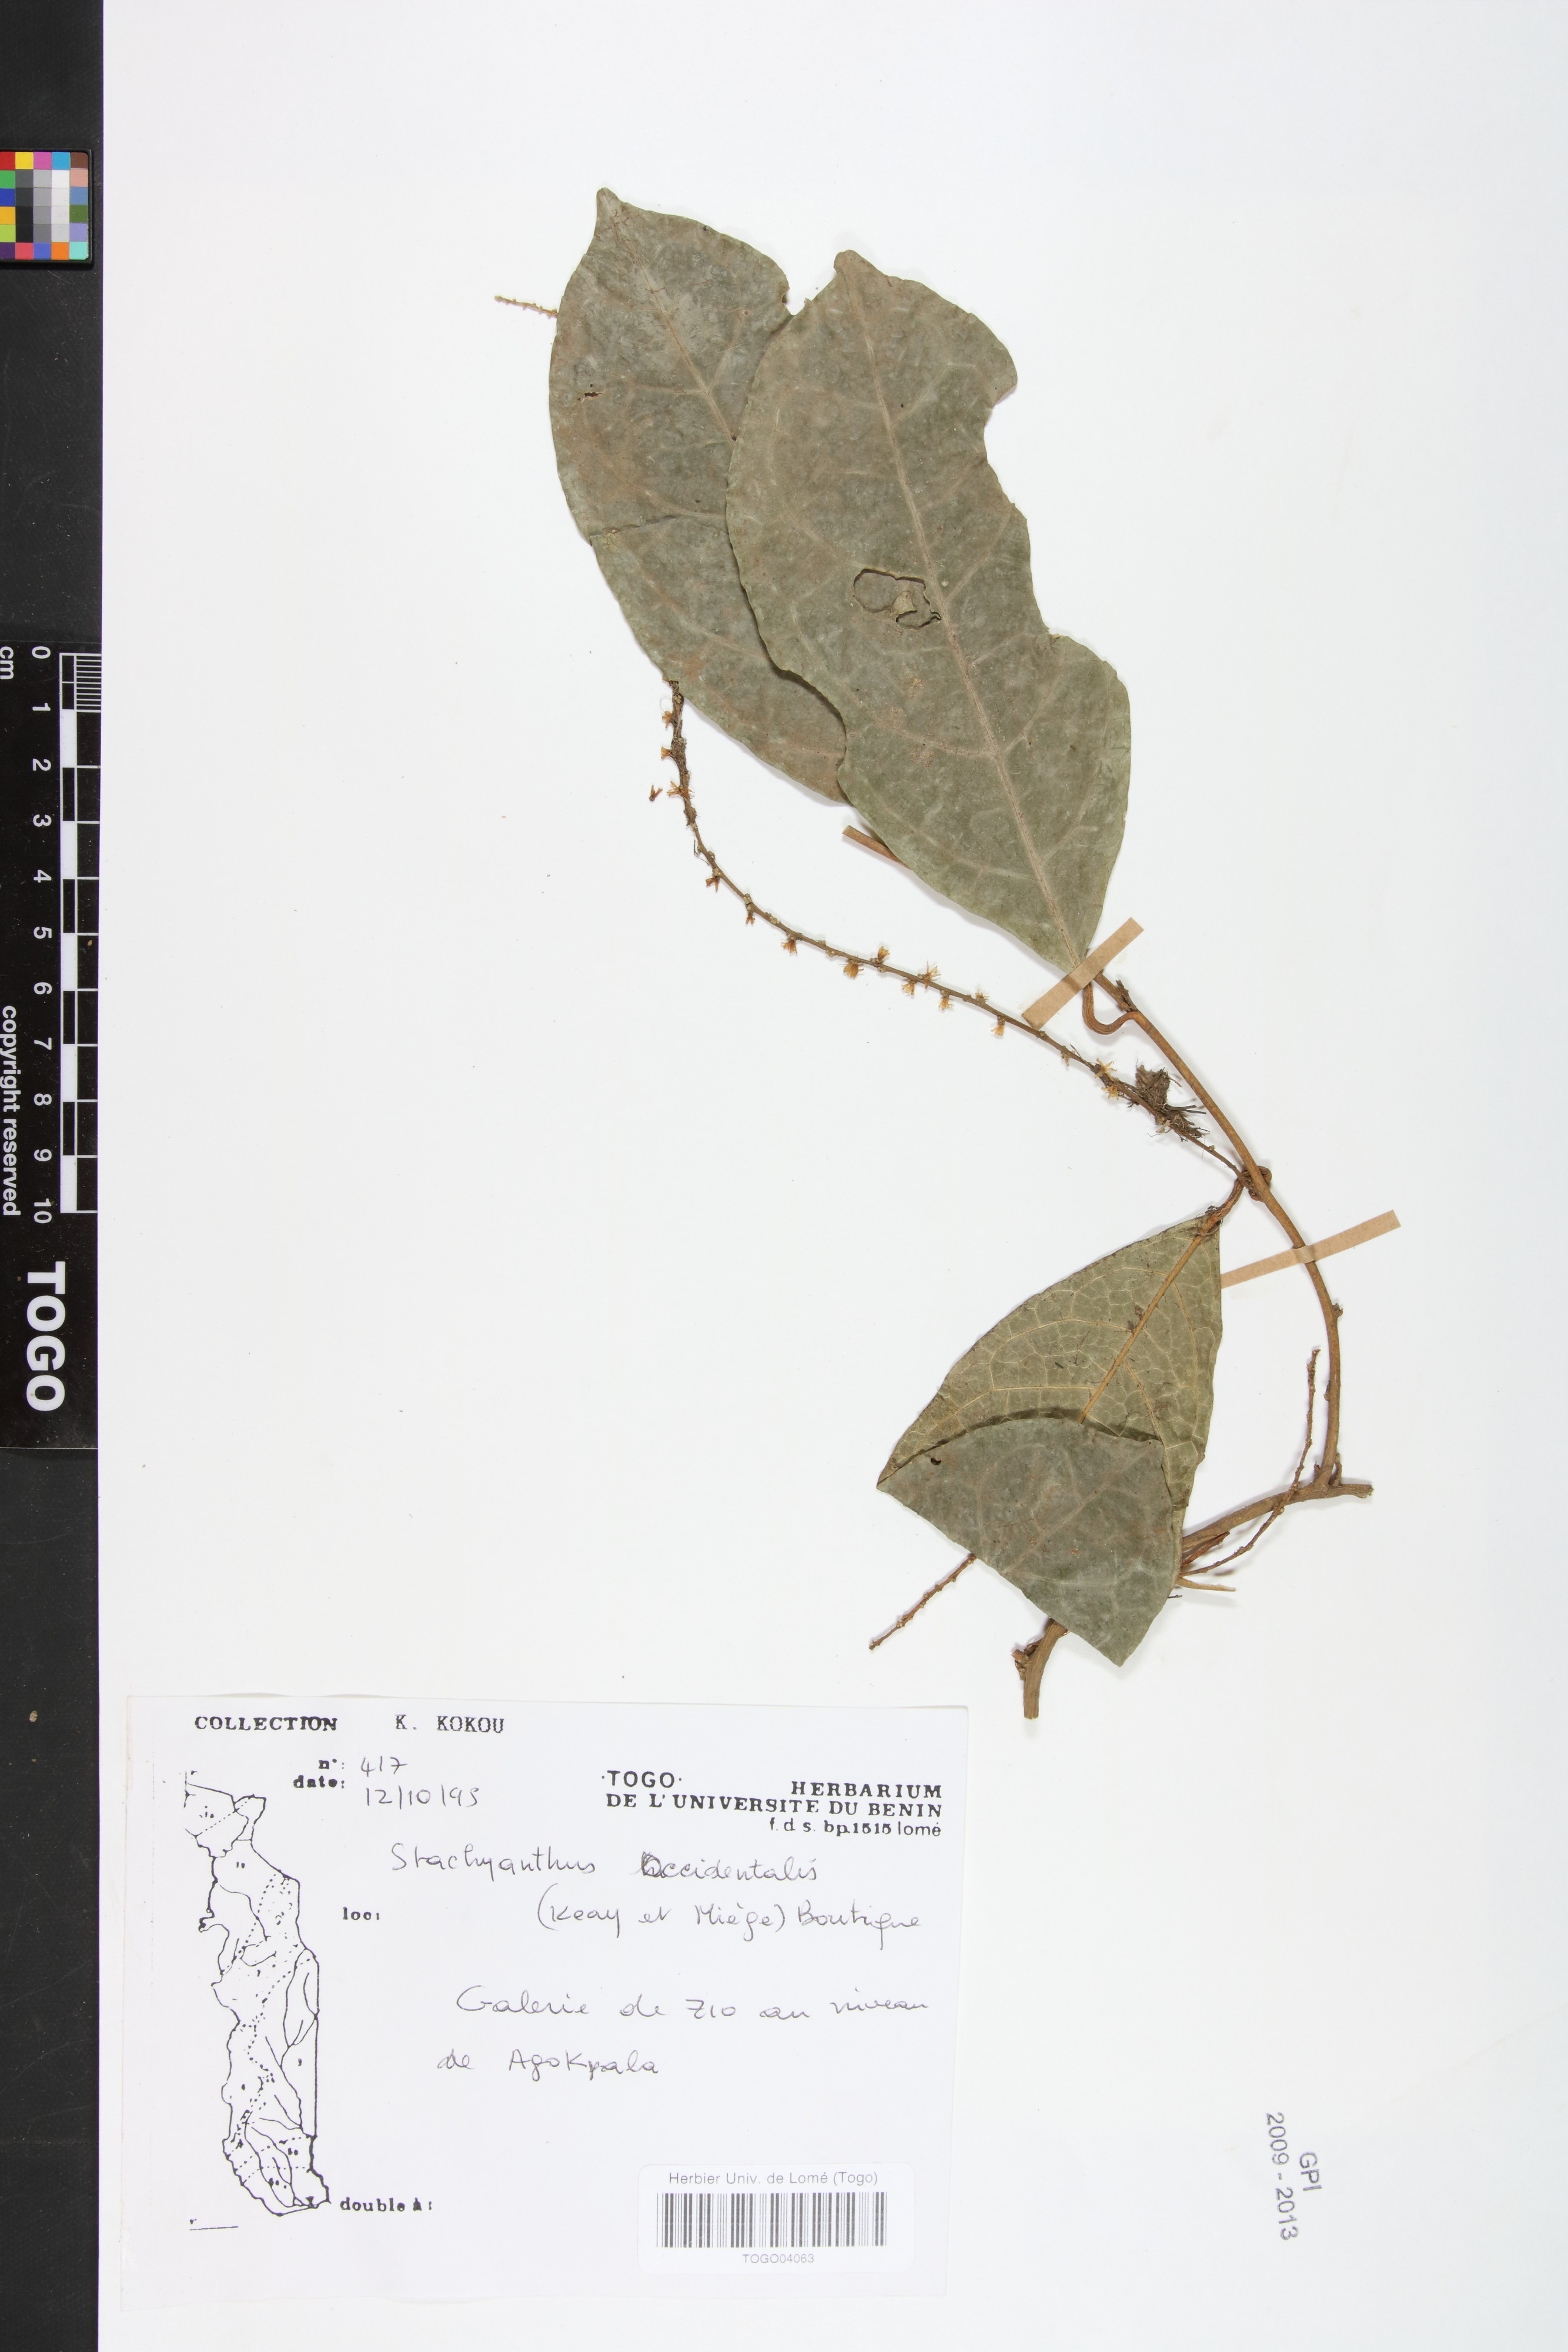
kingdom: Plantae
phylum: Tracheophyta
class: Magnoliopsida
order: Icacinales
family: Icacinaceae
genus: Stachyanthus
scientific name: Stachyanthus occidentalis
